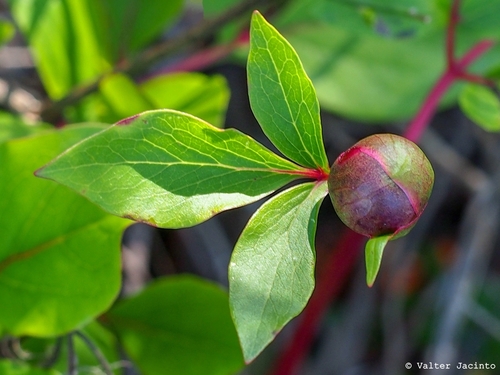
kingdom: Plantae
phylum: Tracheophyta
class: Magnoliopsida
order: Saxifragales
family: Paeoniaceae
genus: Paeonia
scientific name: Paeonia broteroi
